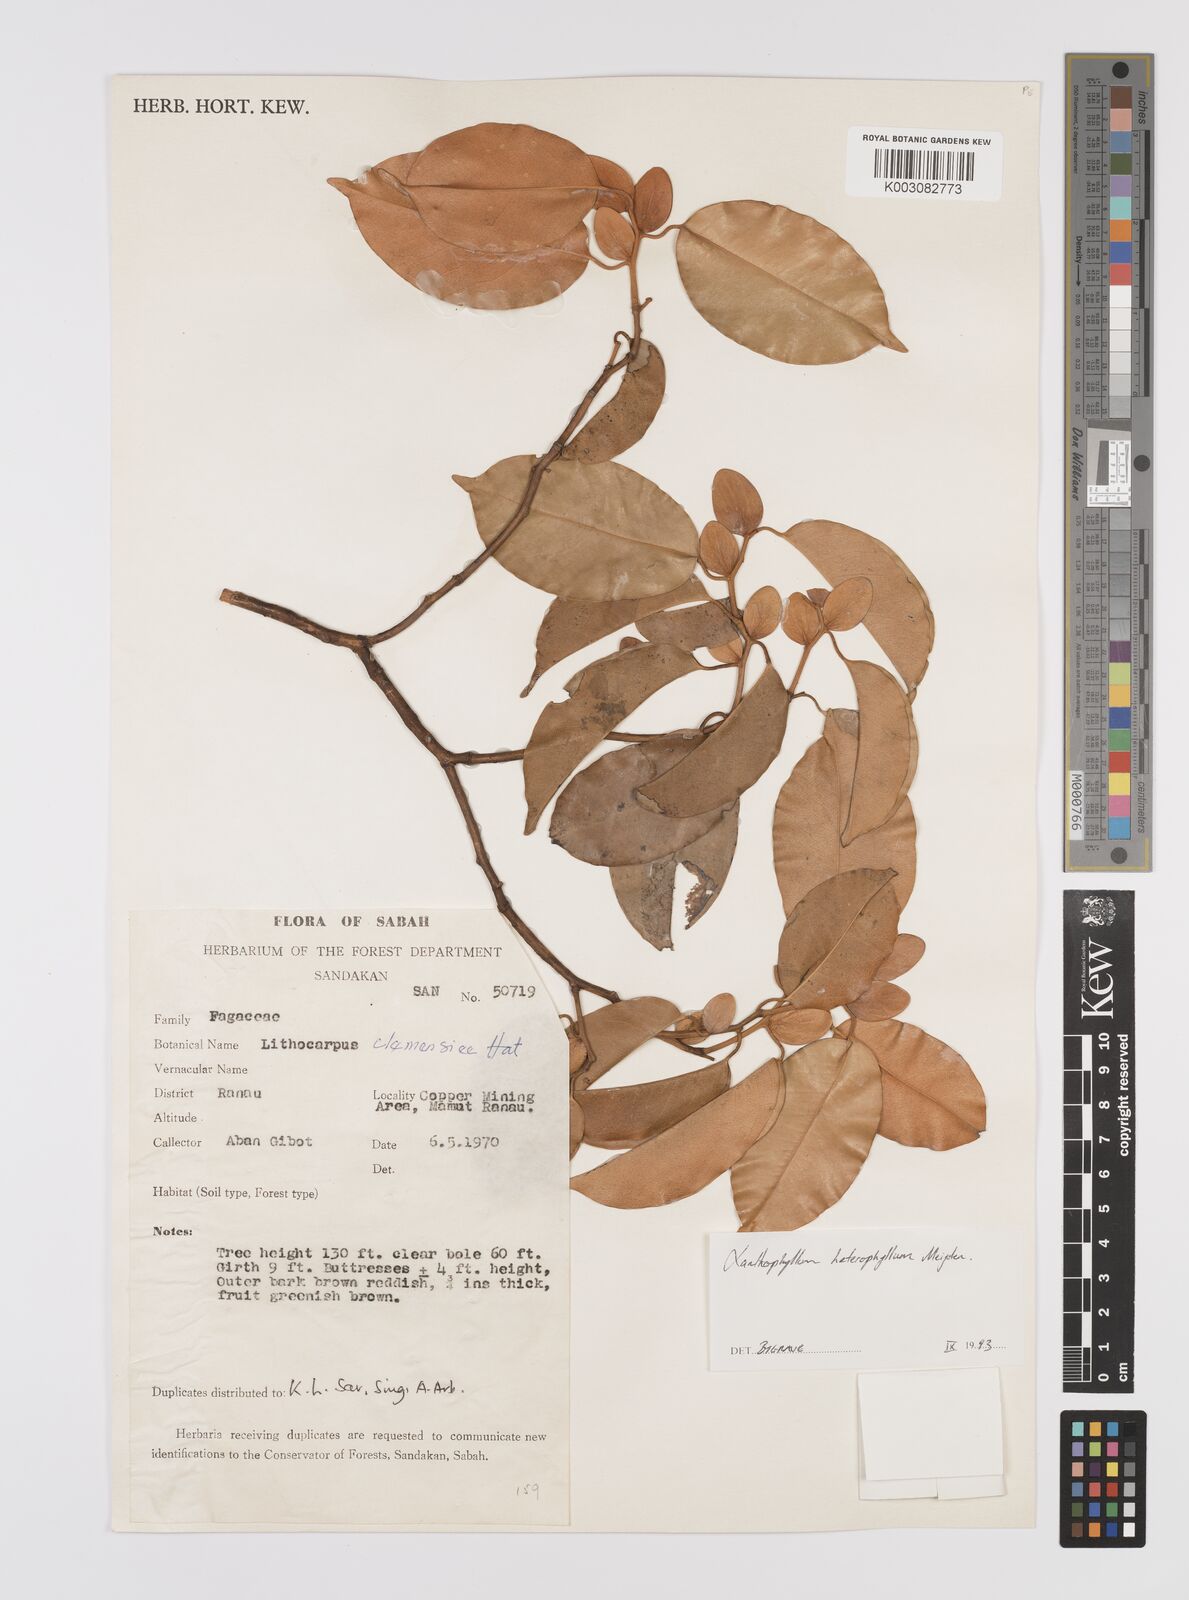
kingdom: Plantae
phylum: Tracheophyta
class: Magnoliopsida
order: Fabales
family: Polygalaceae
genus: Xanthophyllum
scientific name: Xanthophyllum heterophyllum
